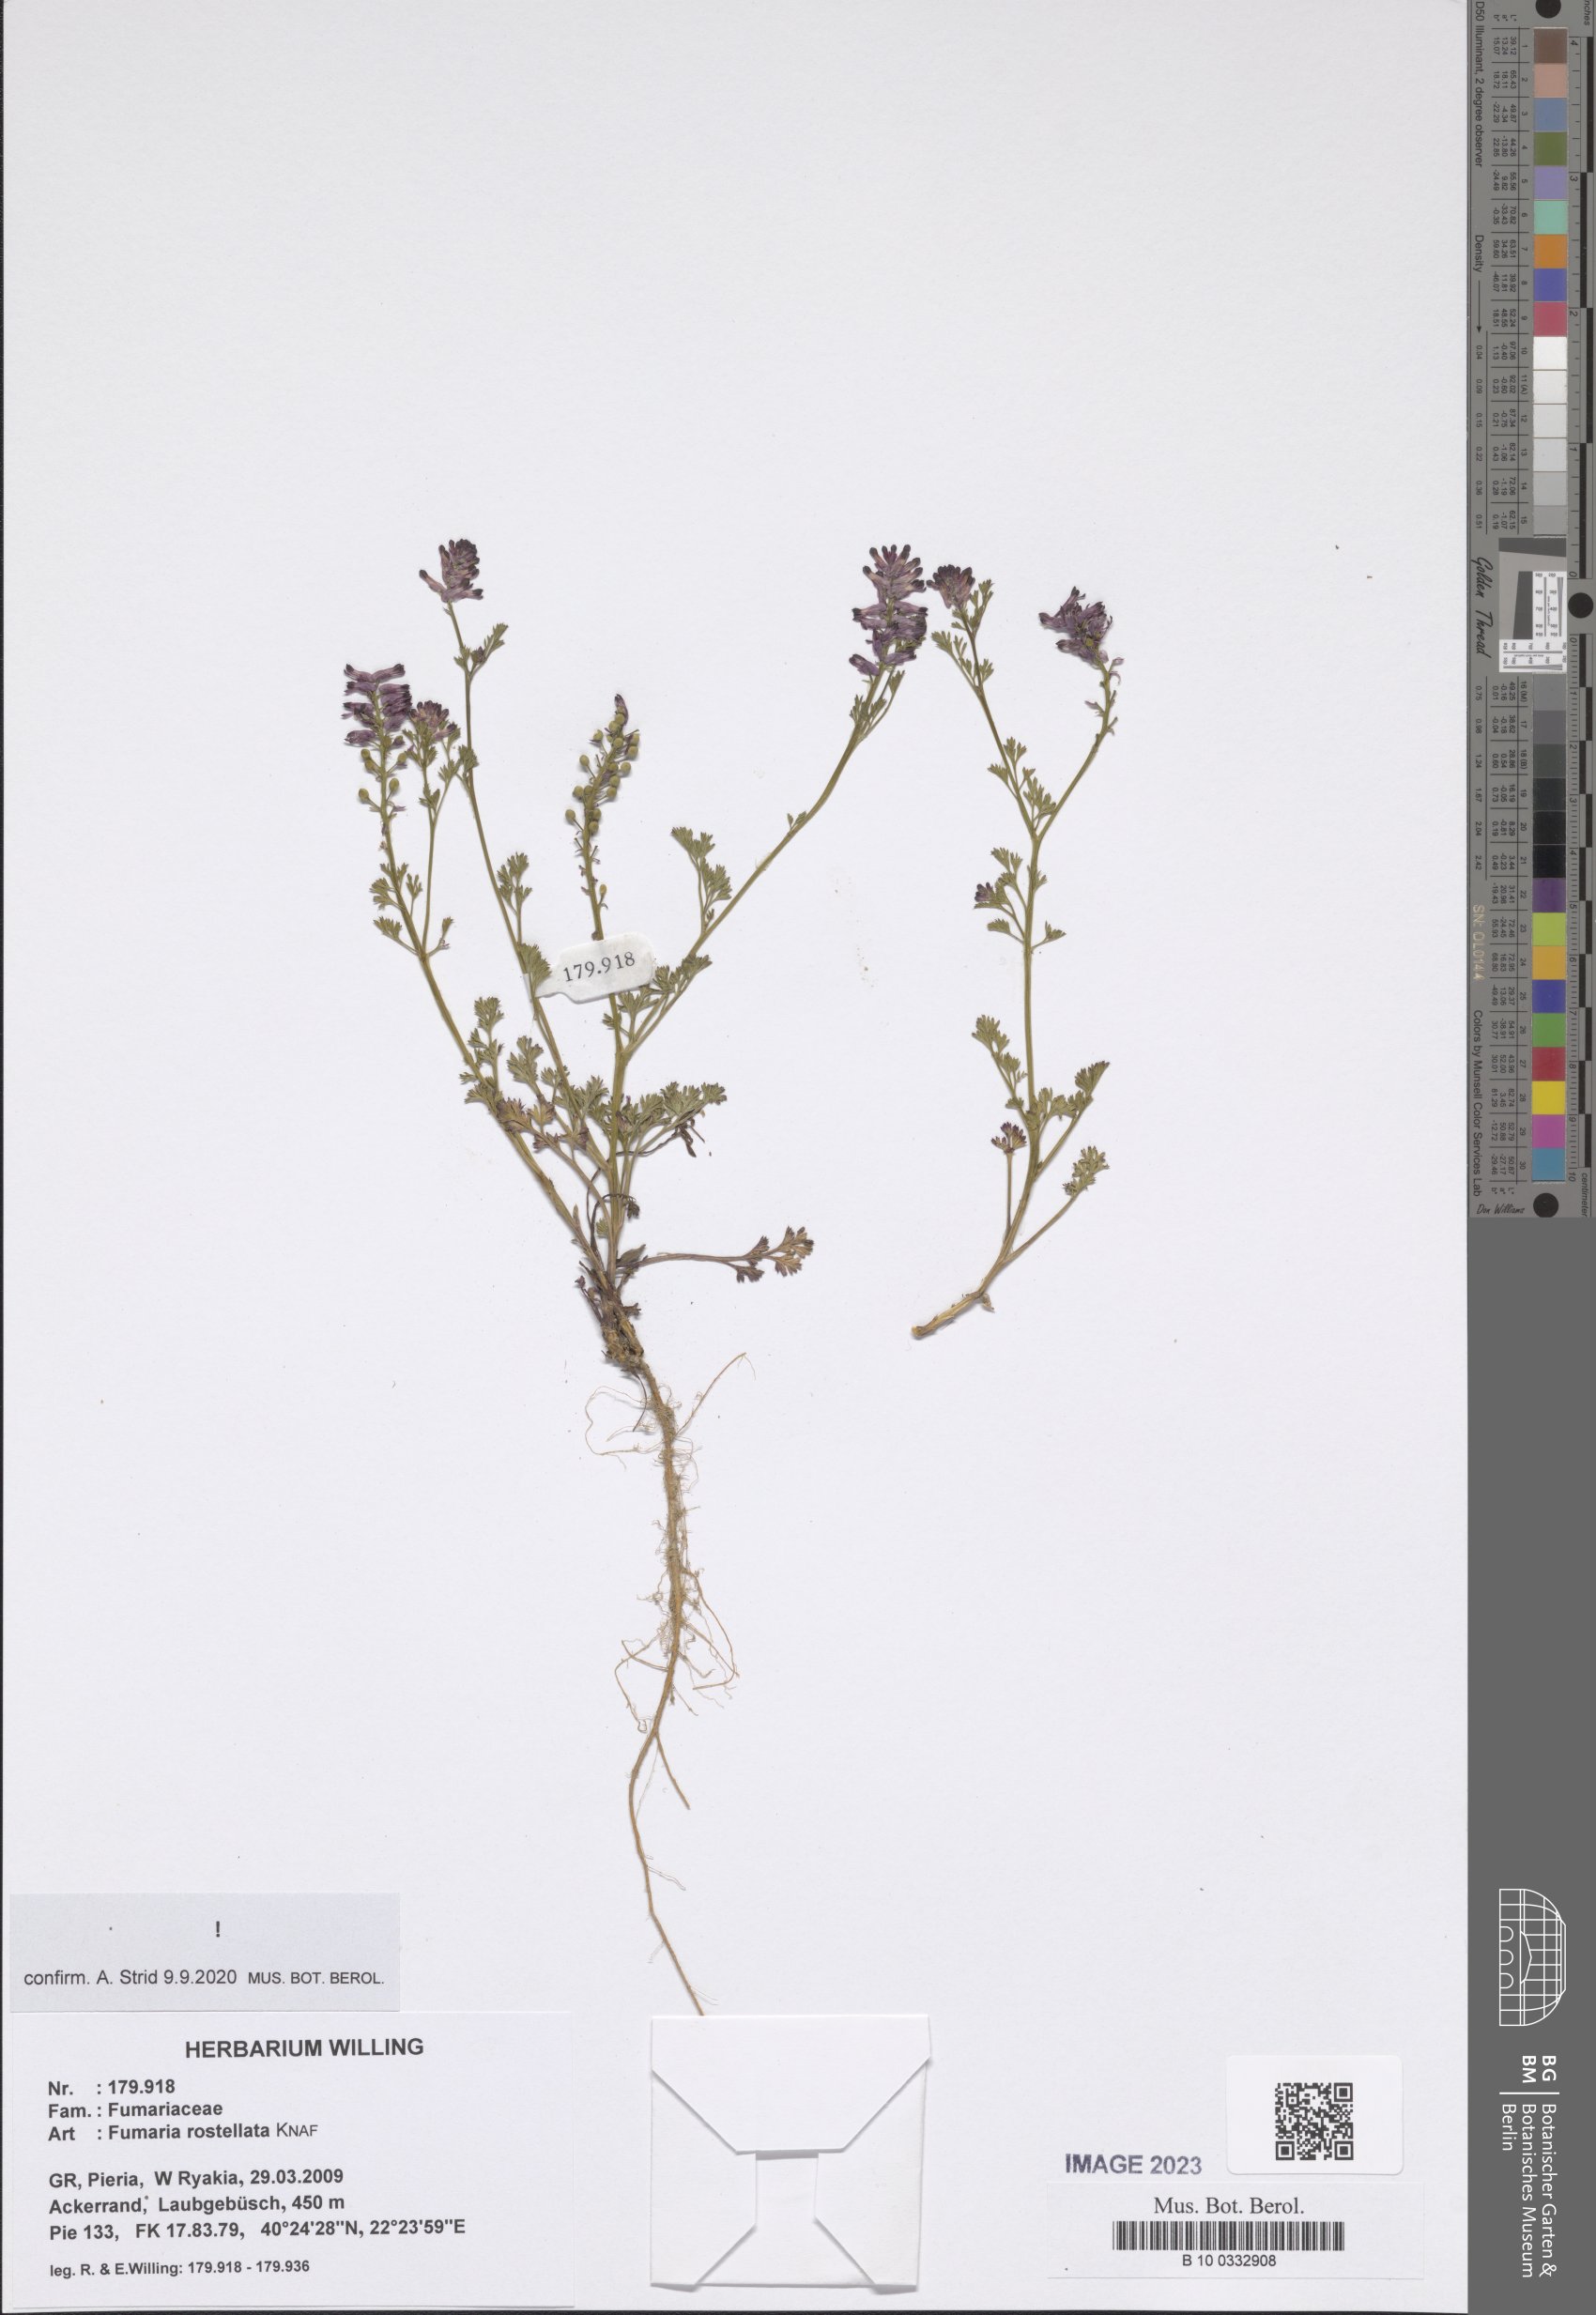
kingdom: Plantae
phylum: Tracheophyta
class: Magnoliopsida
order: Ranunculales
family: Papaveraceae
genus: Fumaria
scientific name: Fumaria rostellata
